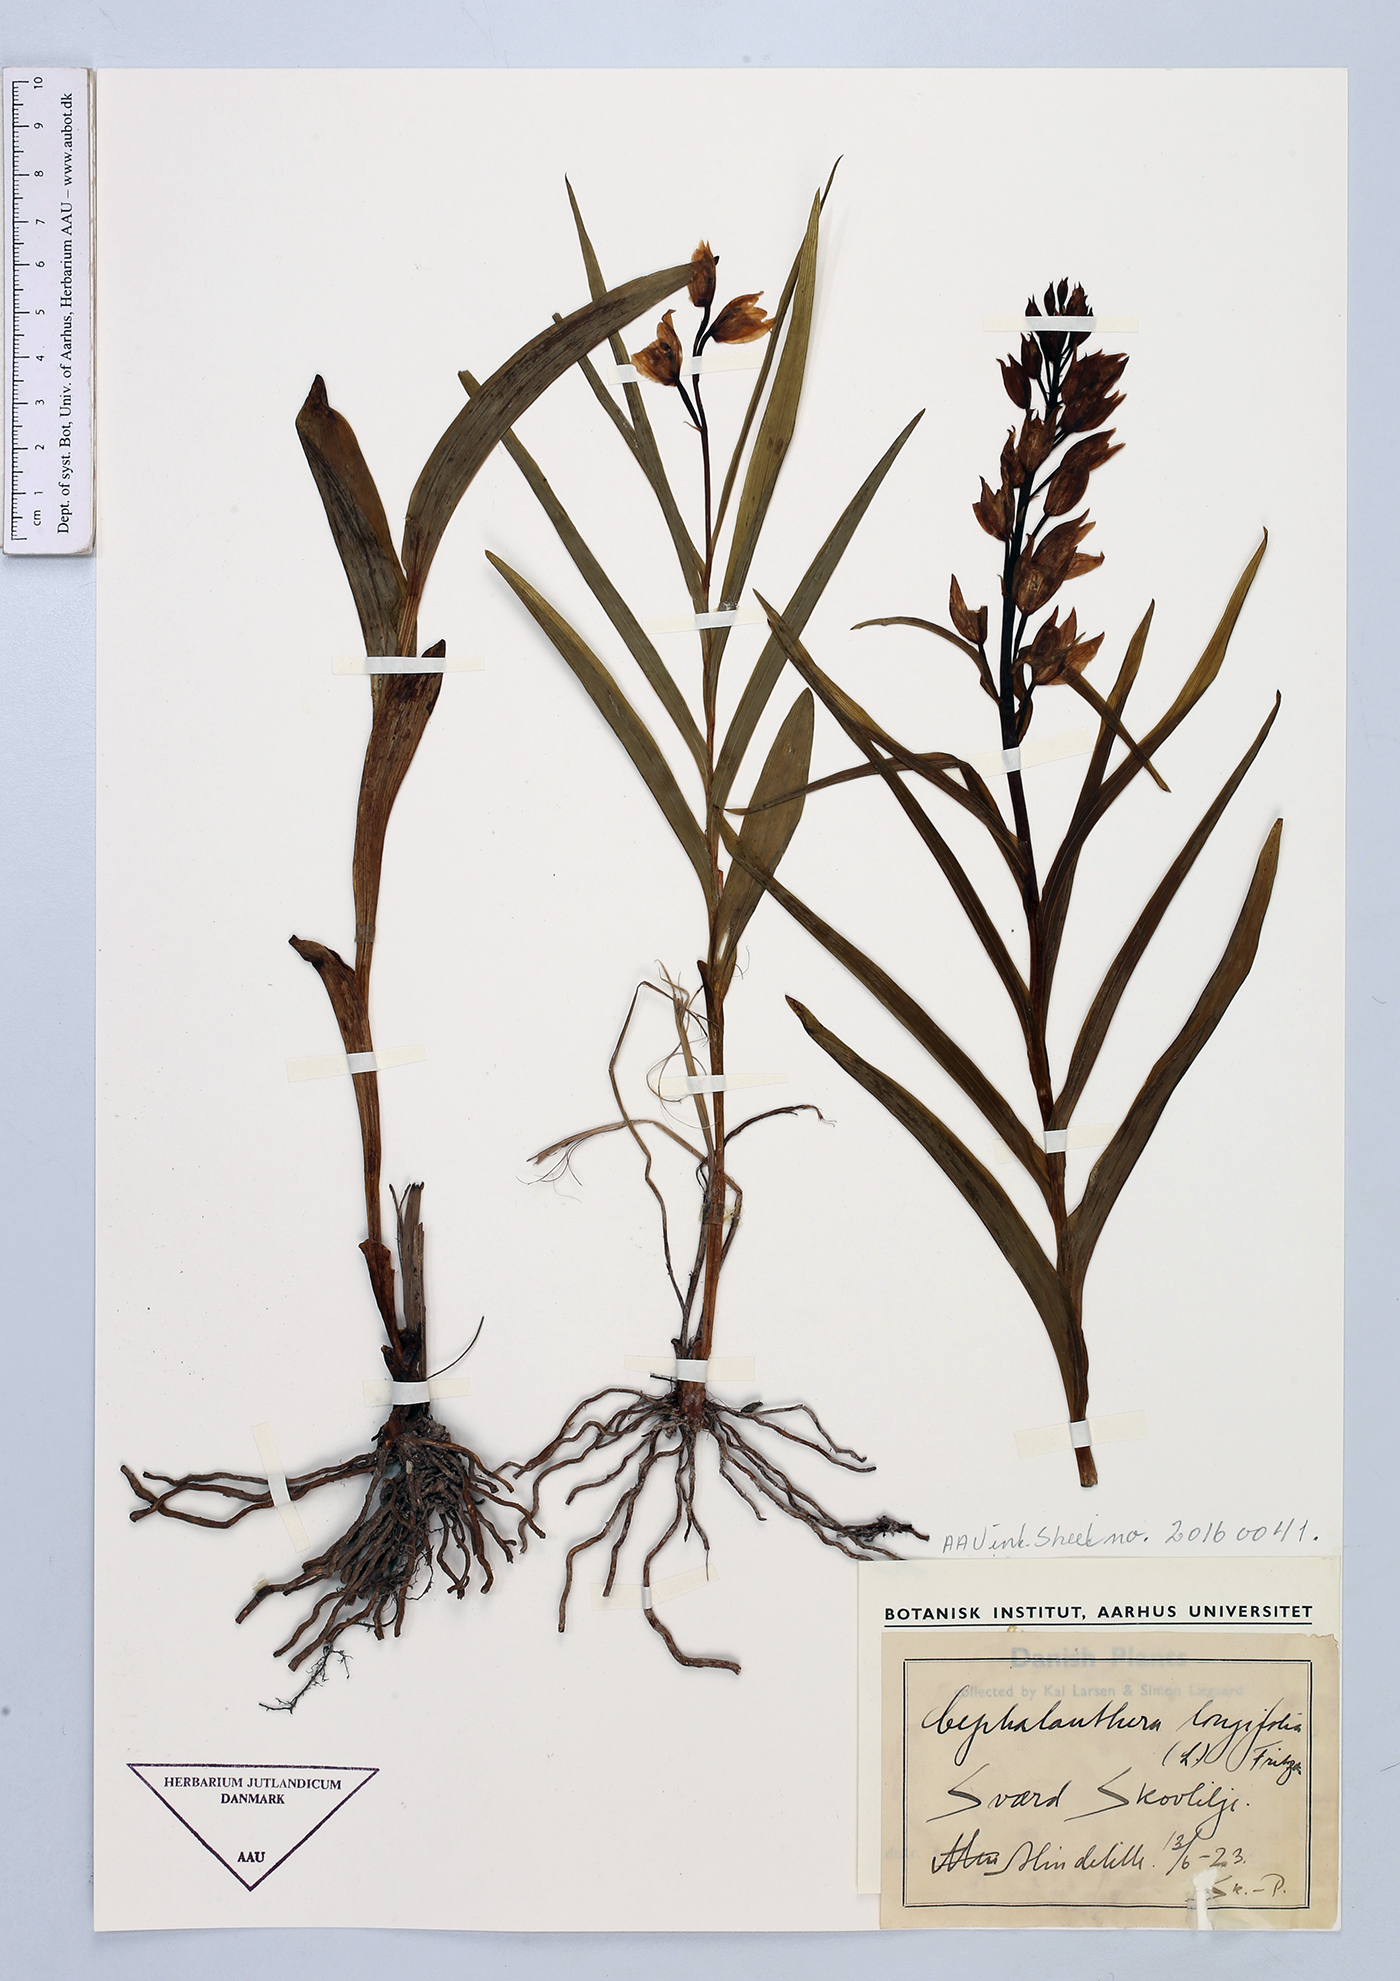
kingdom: Plantae
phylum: Tracheophyta
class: Liliopsida
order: Asparagales
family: Orchidaceae
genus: Cephalanthera
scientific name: Cephalanthera longifolia
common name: Narrow-leaved helleborine
